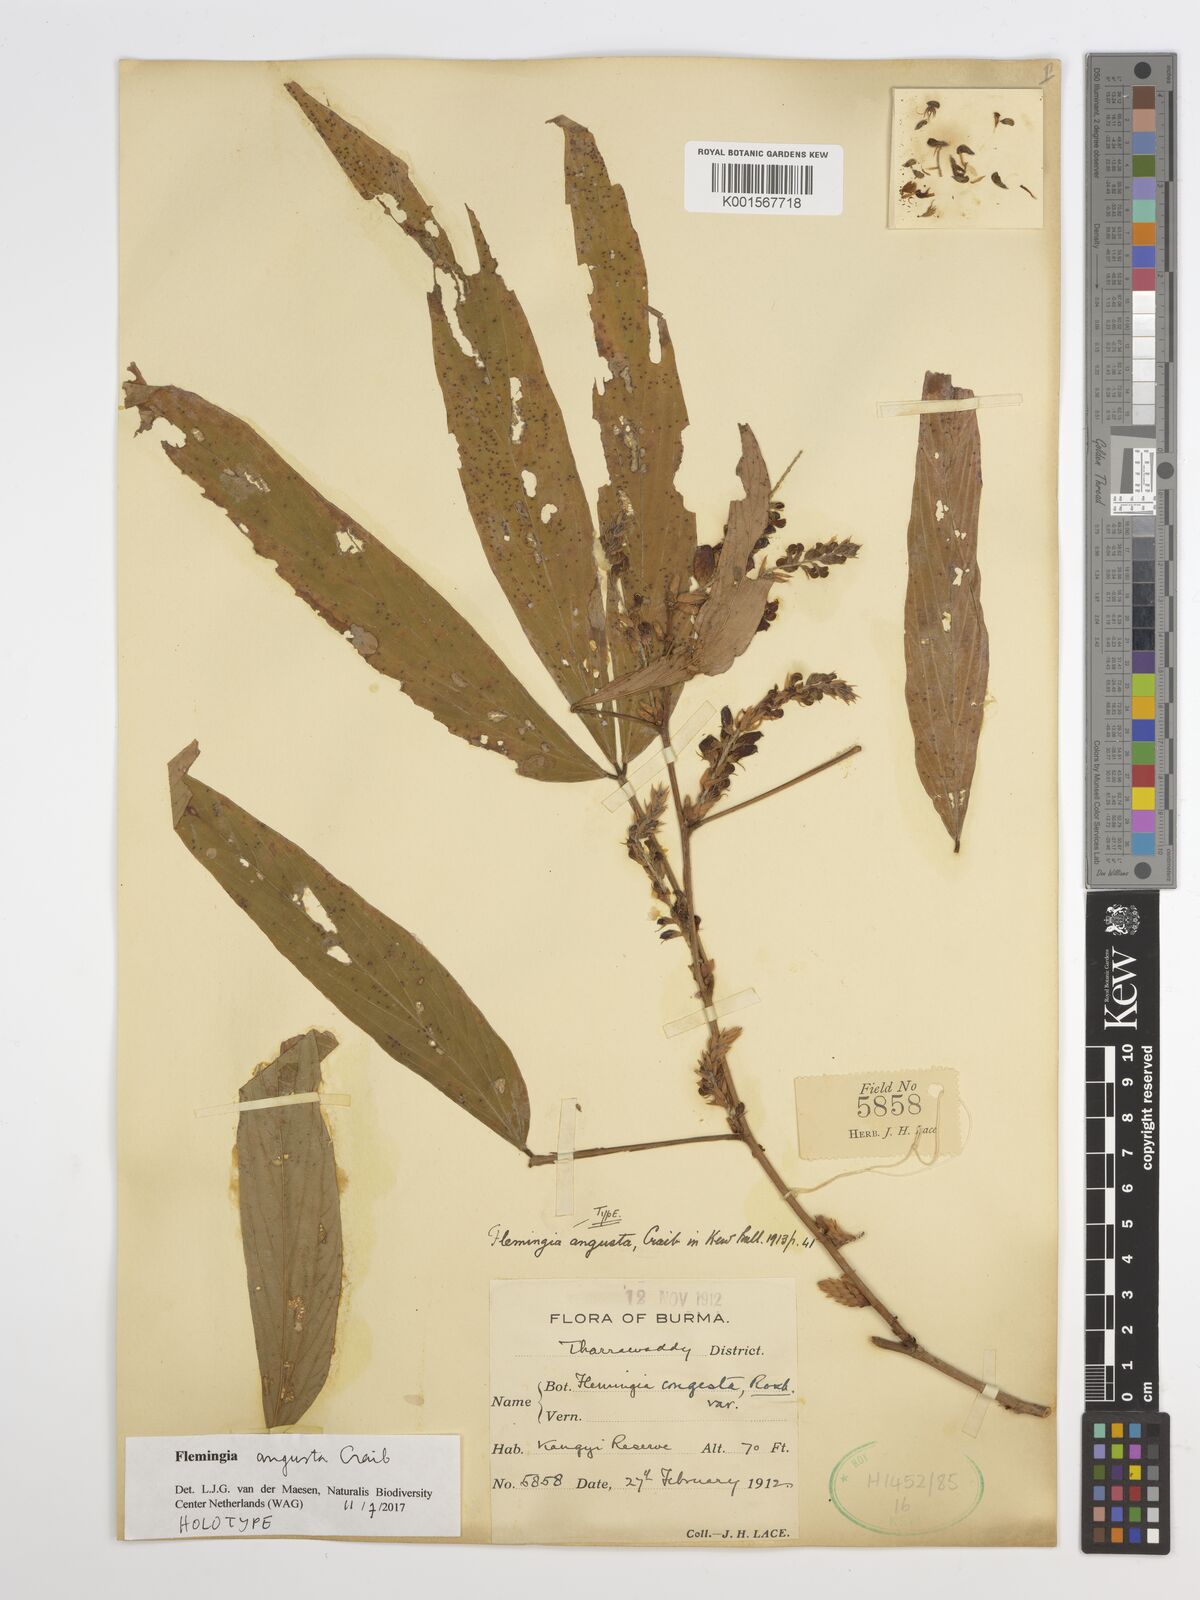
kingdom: Plantae
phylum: Tracheophyta
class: Magnoliopsida
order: Fabales
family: Fabaceae
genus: Flemingia
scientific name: Flemingia angusta
